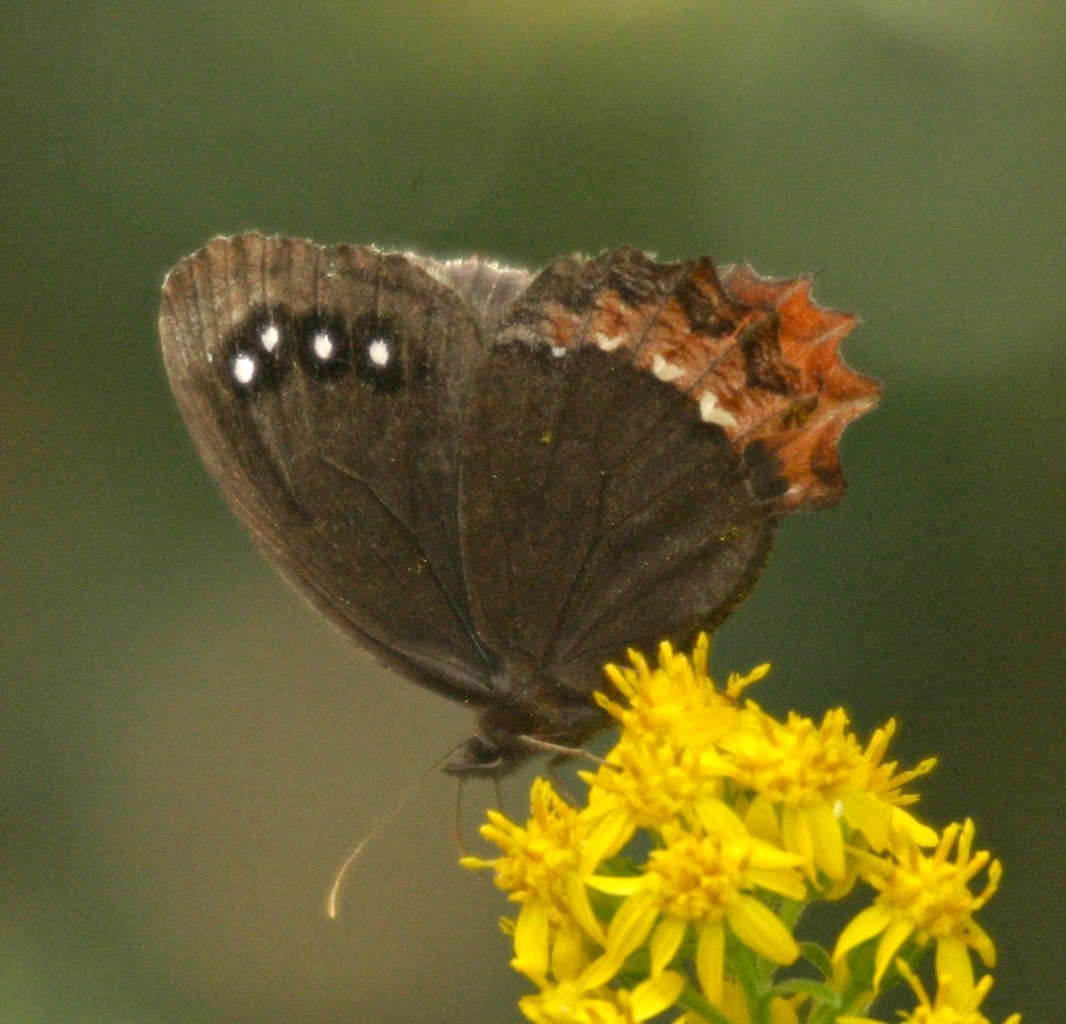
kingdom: Animalia
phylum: Arthropoda
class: Insecta
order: Lepidoptera
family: Nymphalidae
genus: Gyrocheilus
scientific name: Gyrocheilus patrobas
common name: Red-bordered Satyr
